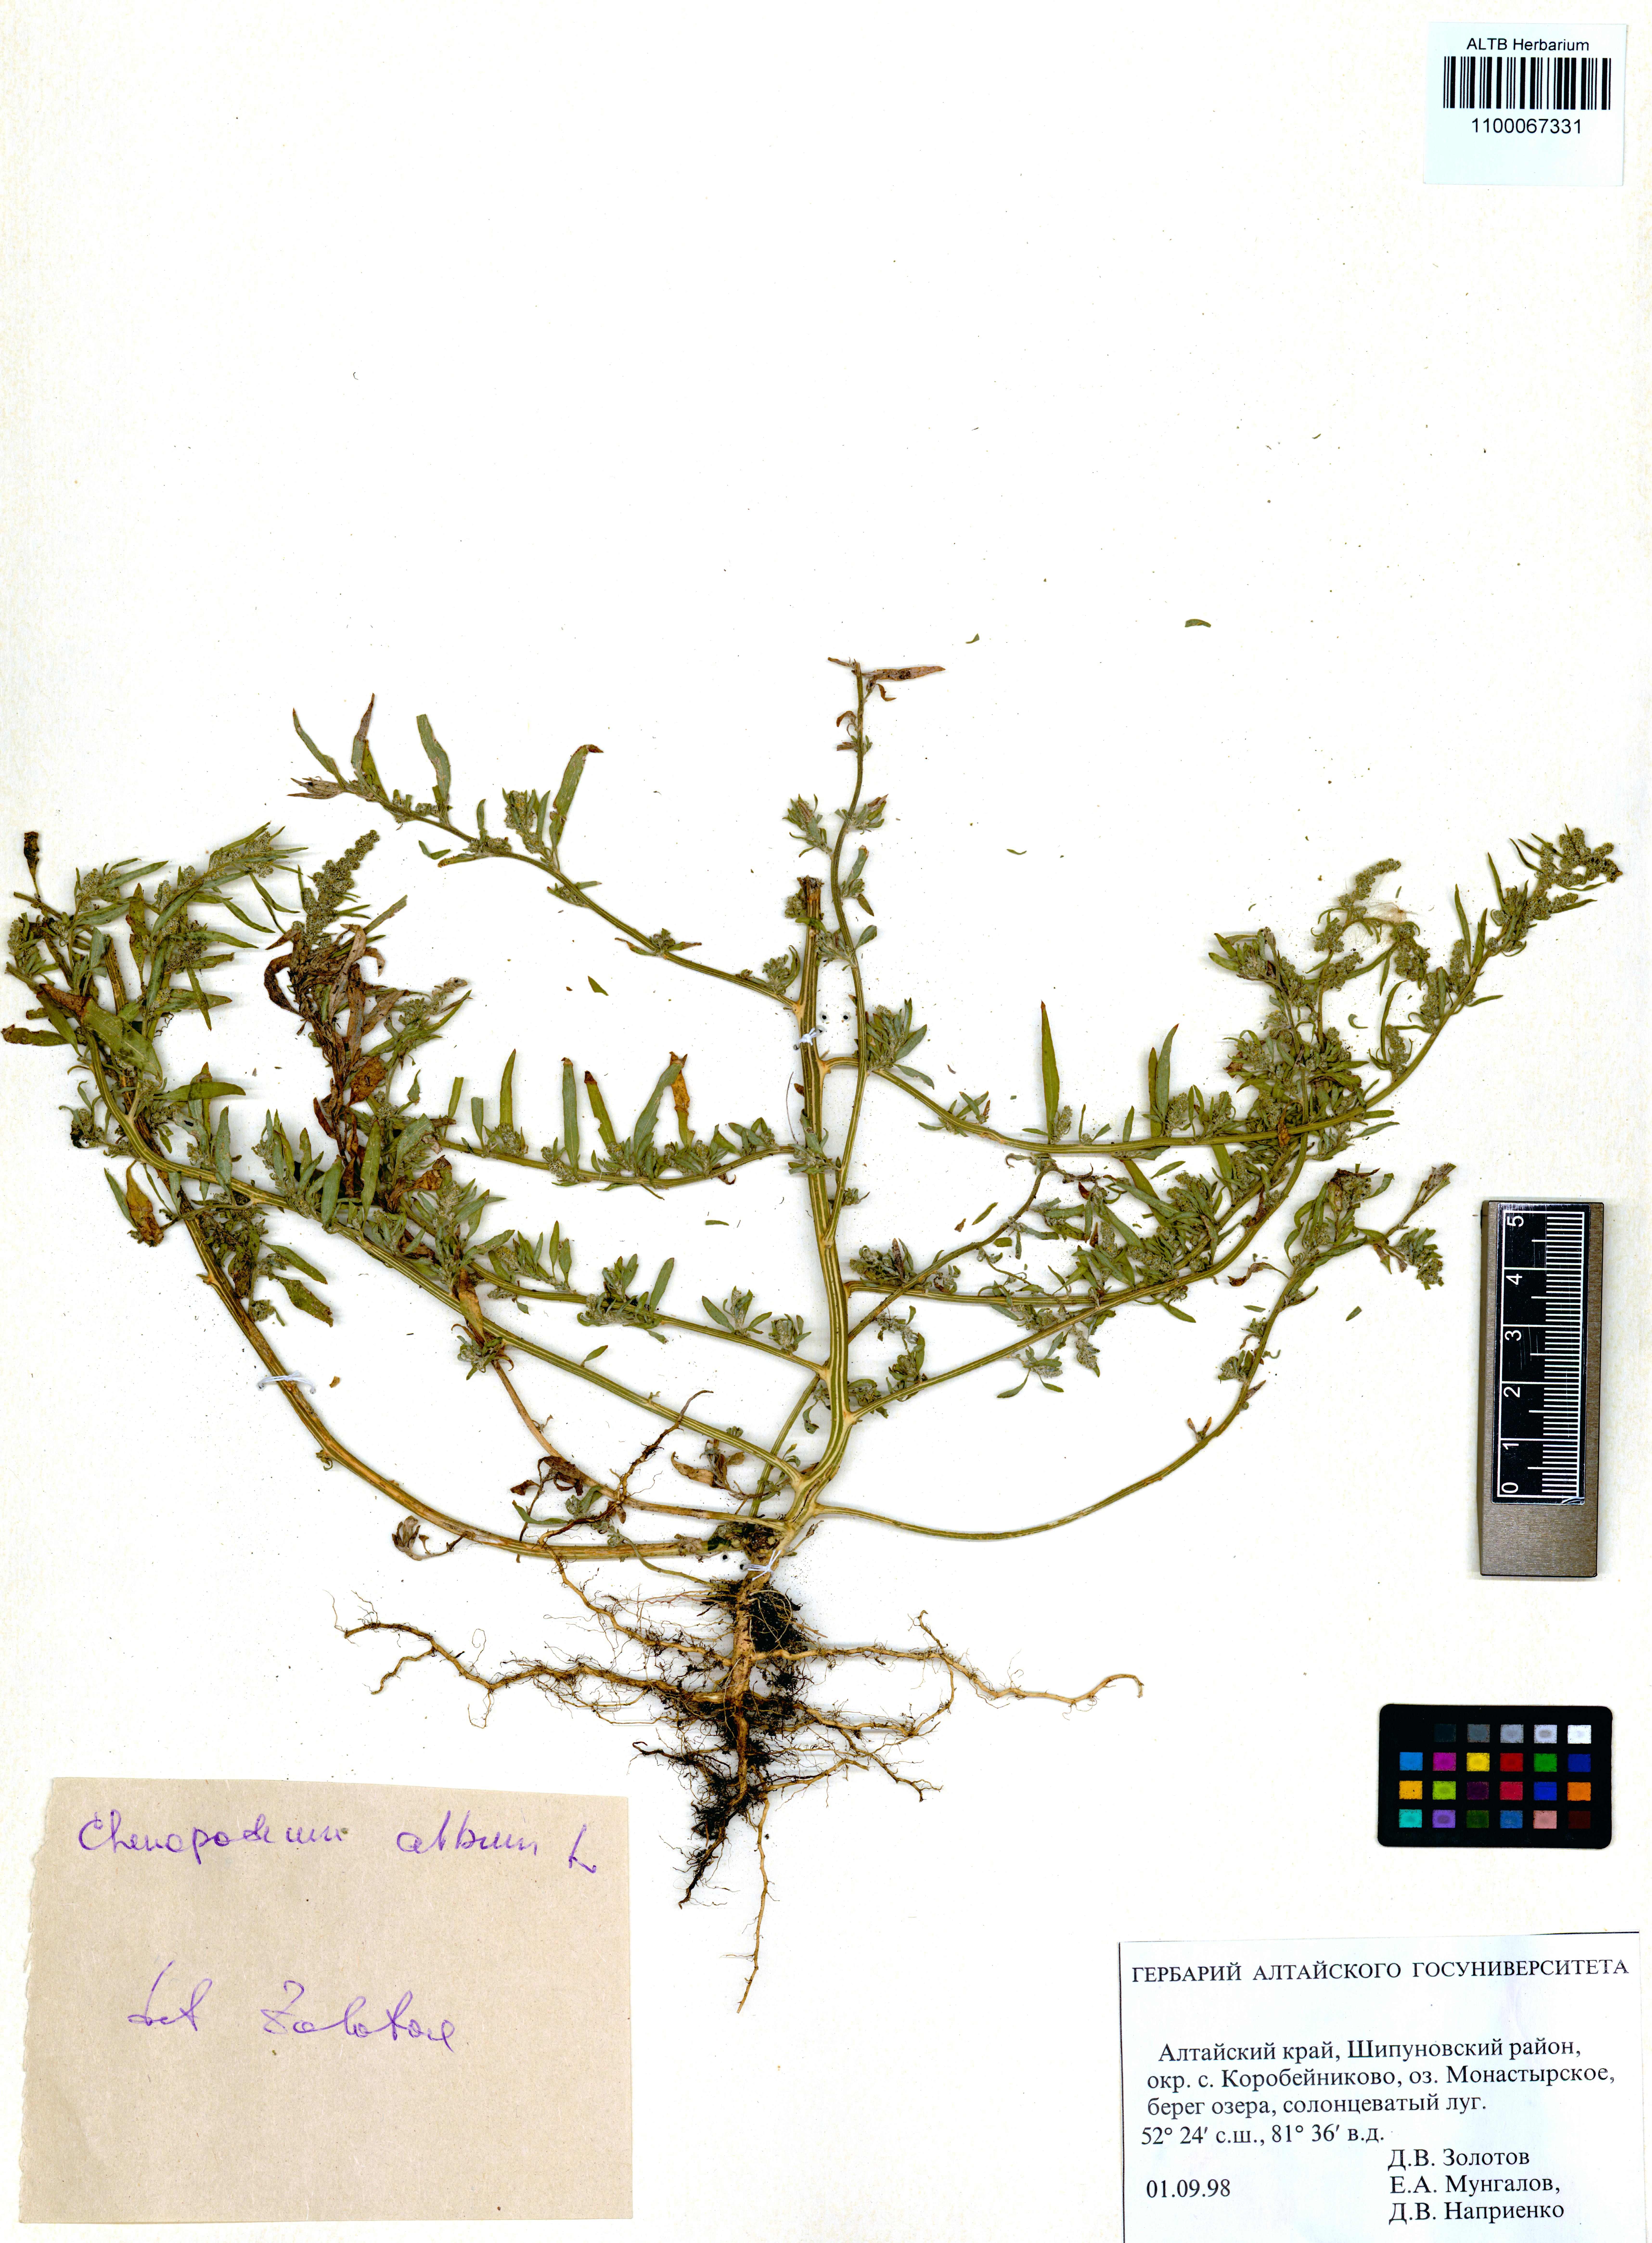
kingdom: Plantae
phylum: Tracheophyta
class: Magnoliopsida
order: Caryophyllales
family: Amaranthaceae
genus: Chenopodium
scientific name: Chenopodium album
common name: Fat-hen
